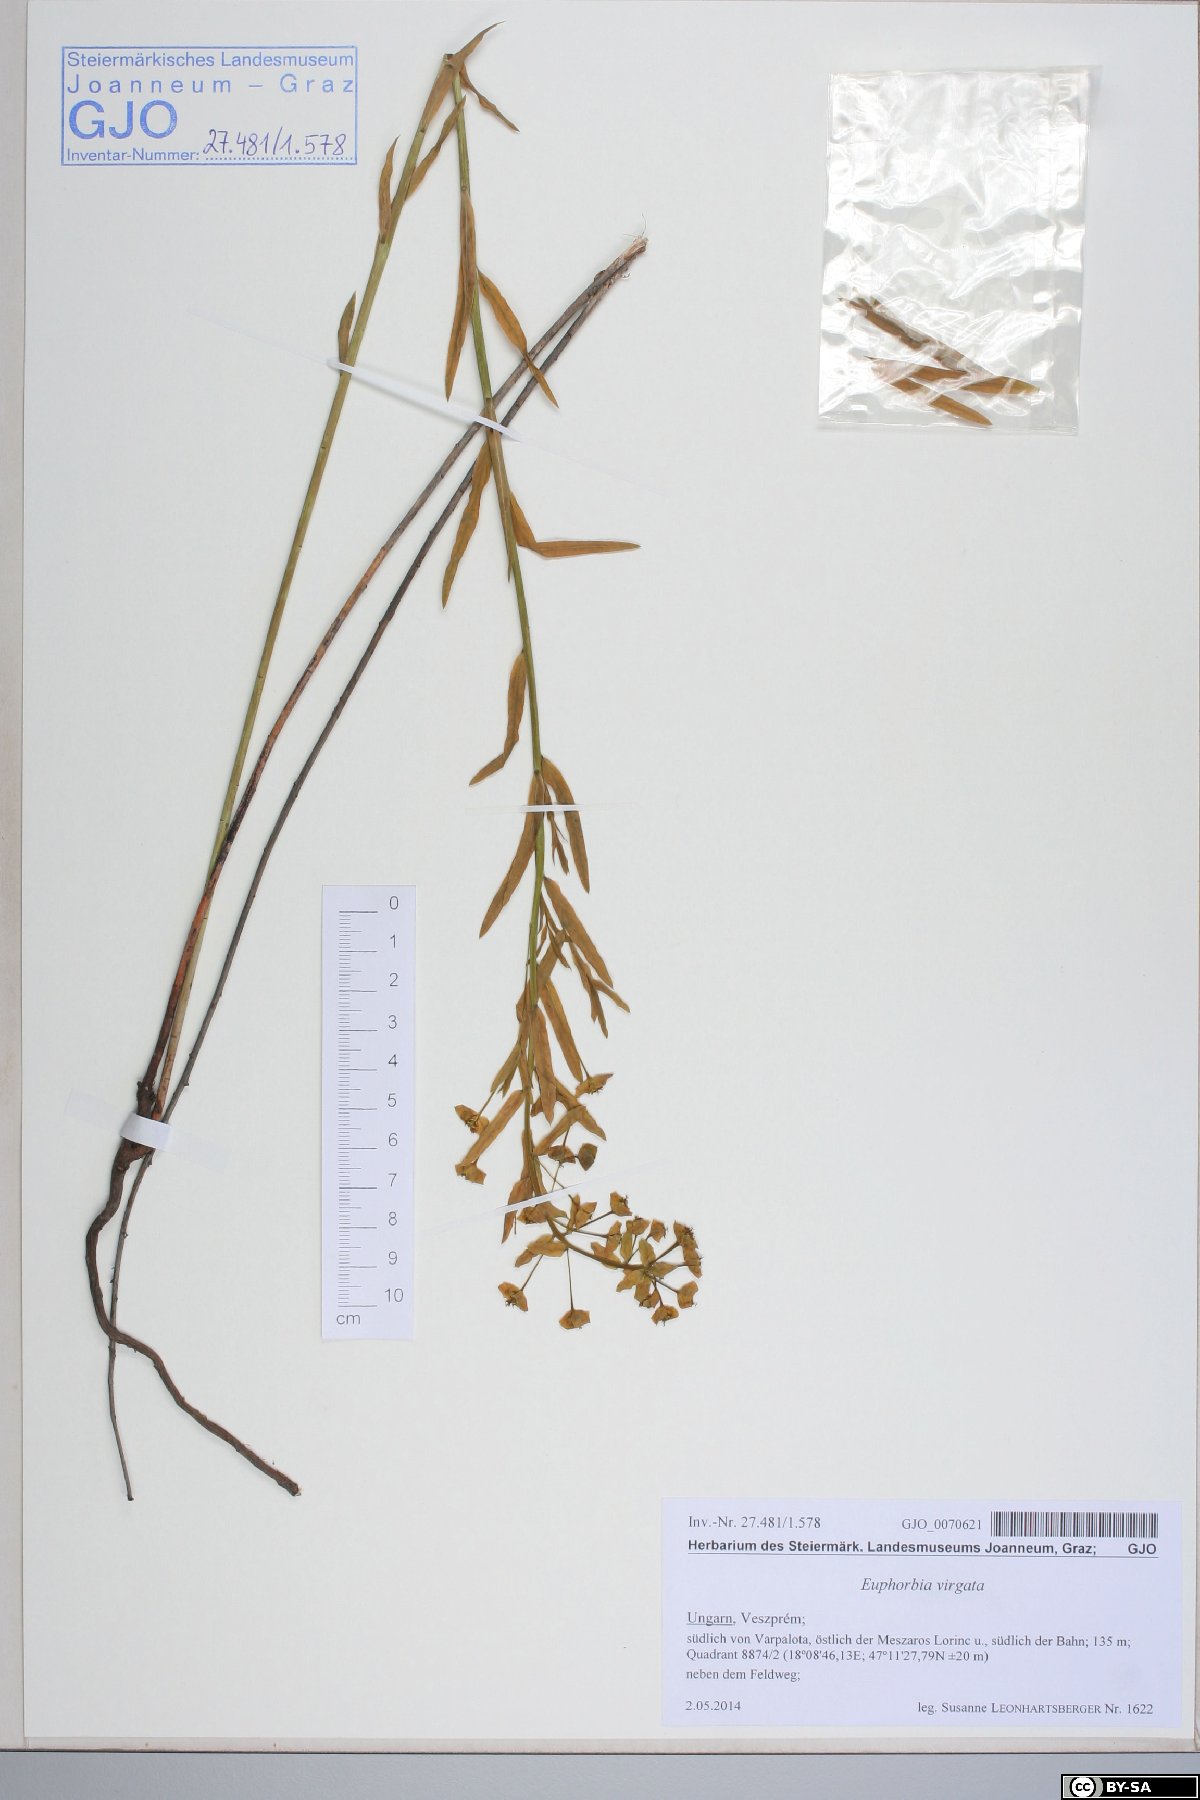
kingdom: Plantae
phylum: Tracheophyta
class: Magnoliopsida
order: Malpighiales
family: Euphorbiaceae
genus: Euphorbia
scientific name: Euphorbia virgata
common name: Leafy spurge
